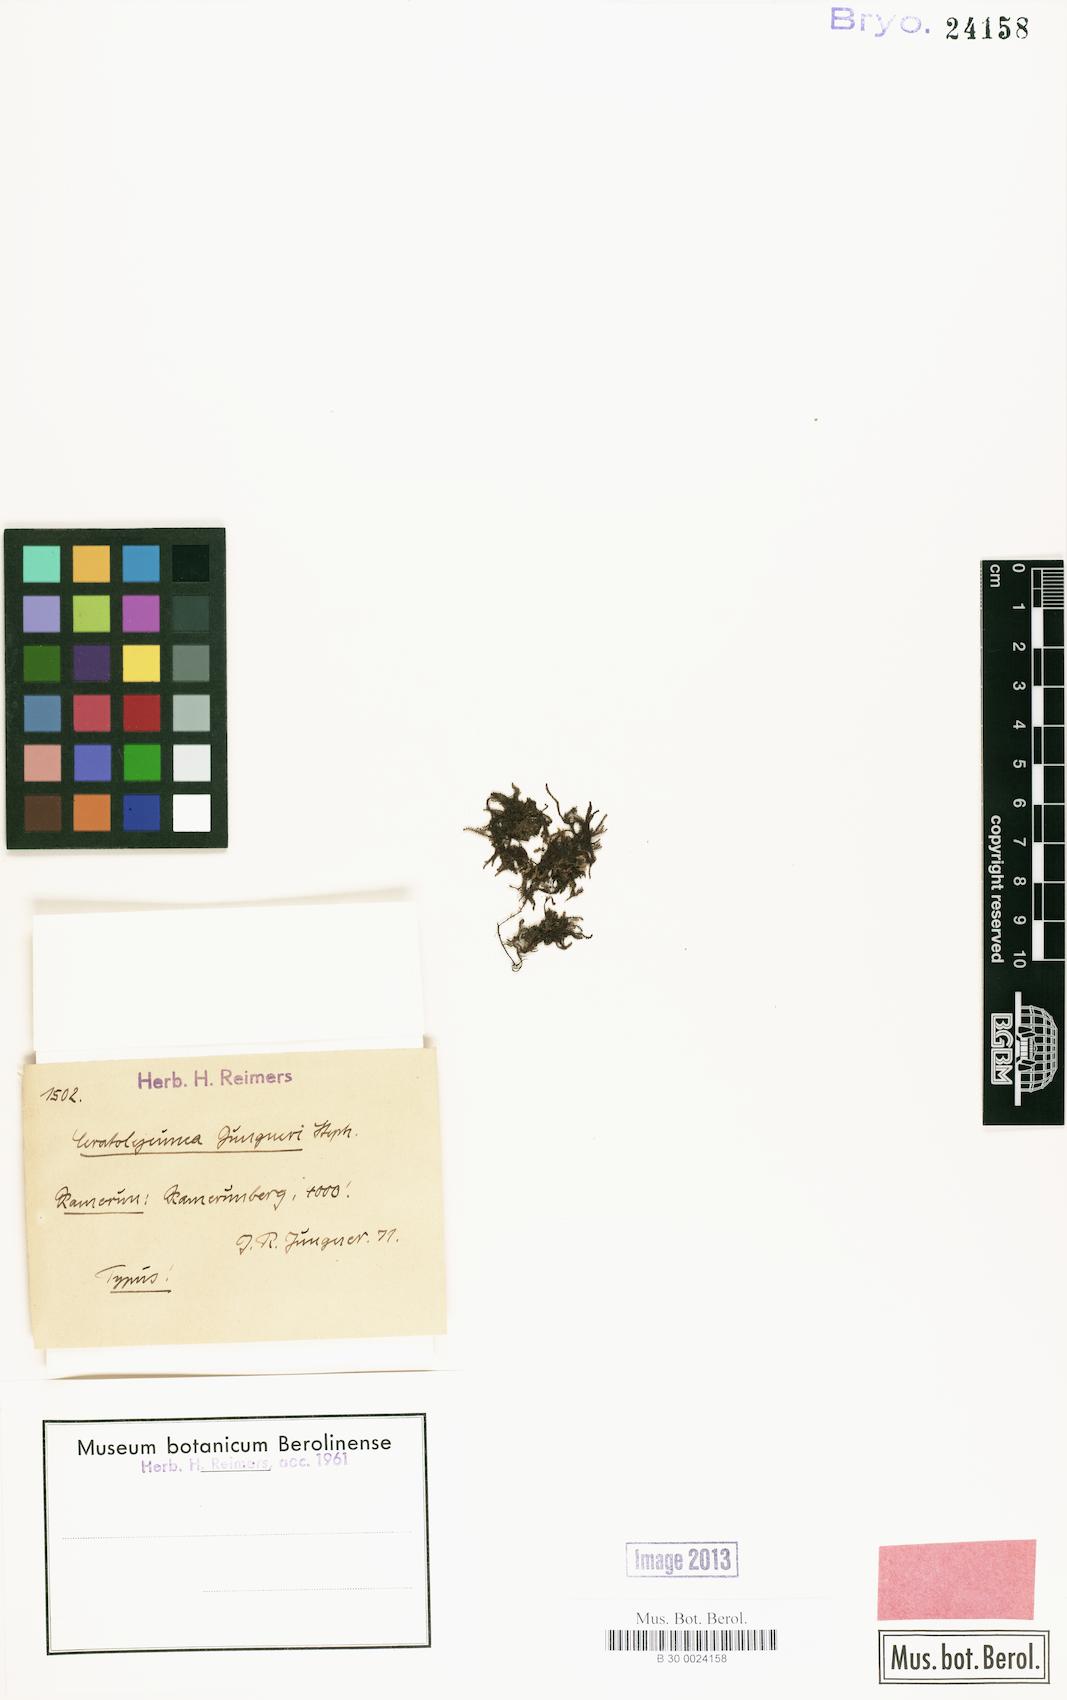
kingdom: Plantae
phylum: Marchantiophyta
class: Jungermanniopsida
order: Porellales
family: Lejeuneaceae
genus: Ceratolejeunea
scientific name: Ceratolejeunea cornuta
